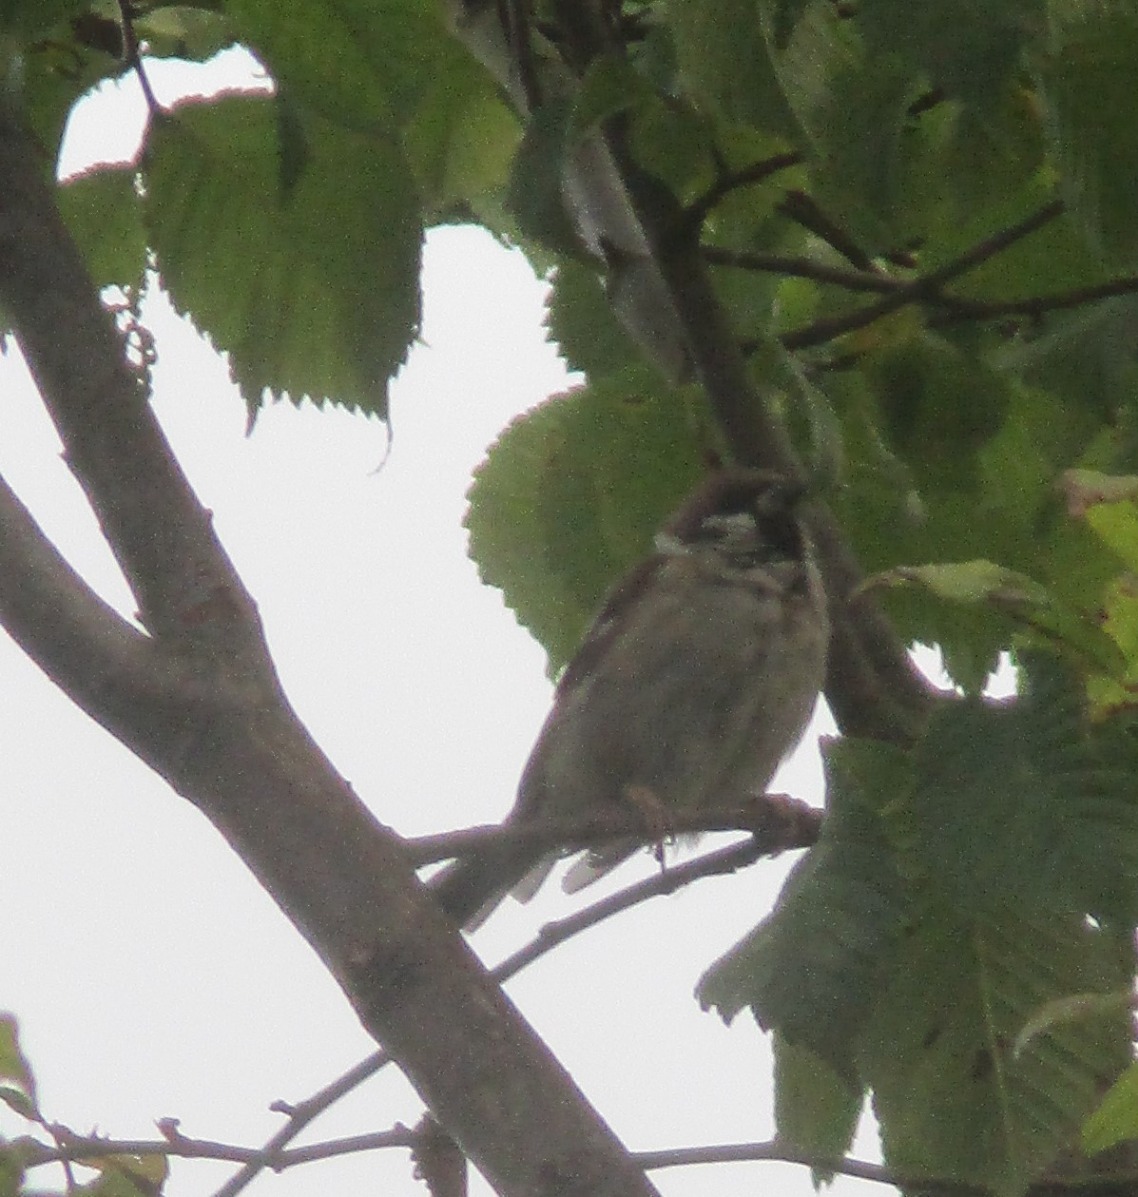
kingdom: Animalia
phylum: Chordata
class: Aves
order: Passeriformes
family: Passeridae
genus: Passer
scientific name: Passer montanus
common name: Skovspurv
